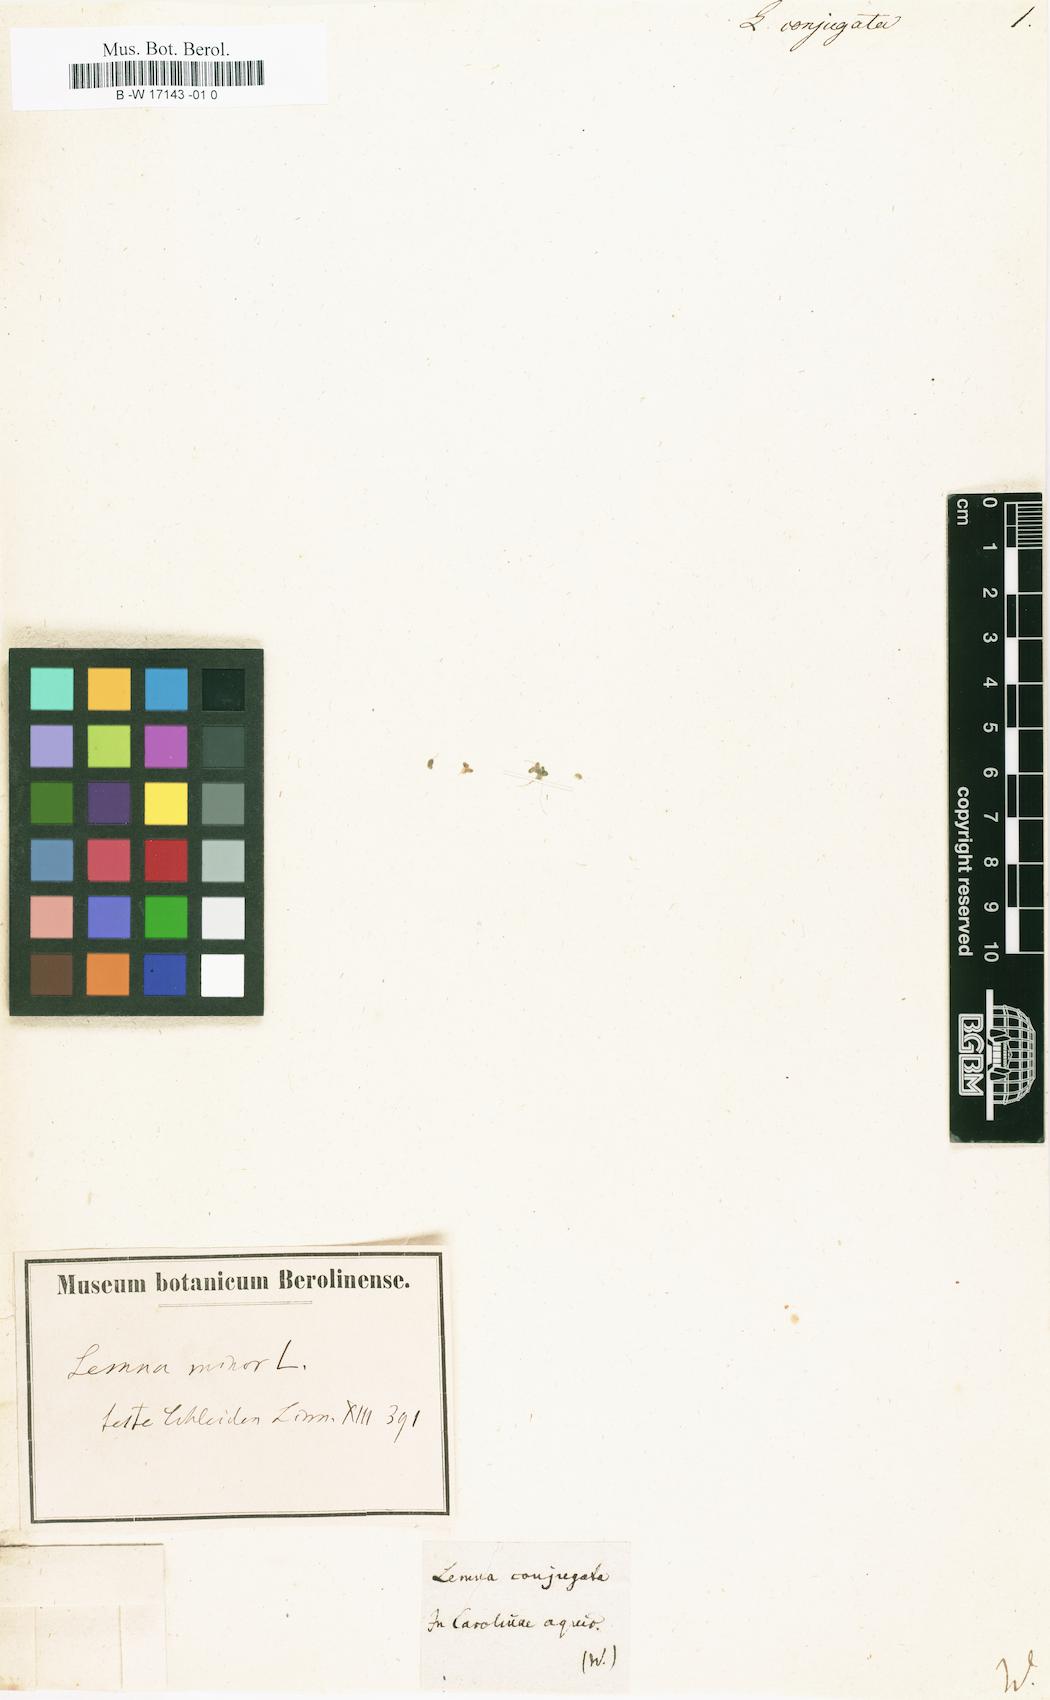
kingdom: Plantae
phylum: Tracheophyta
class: Liliopsida
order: Alismatales
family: Araceae
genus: Lemna
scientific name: Lemna minor
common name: Common duckweed
